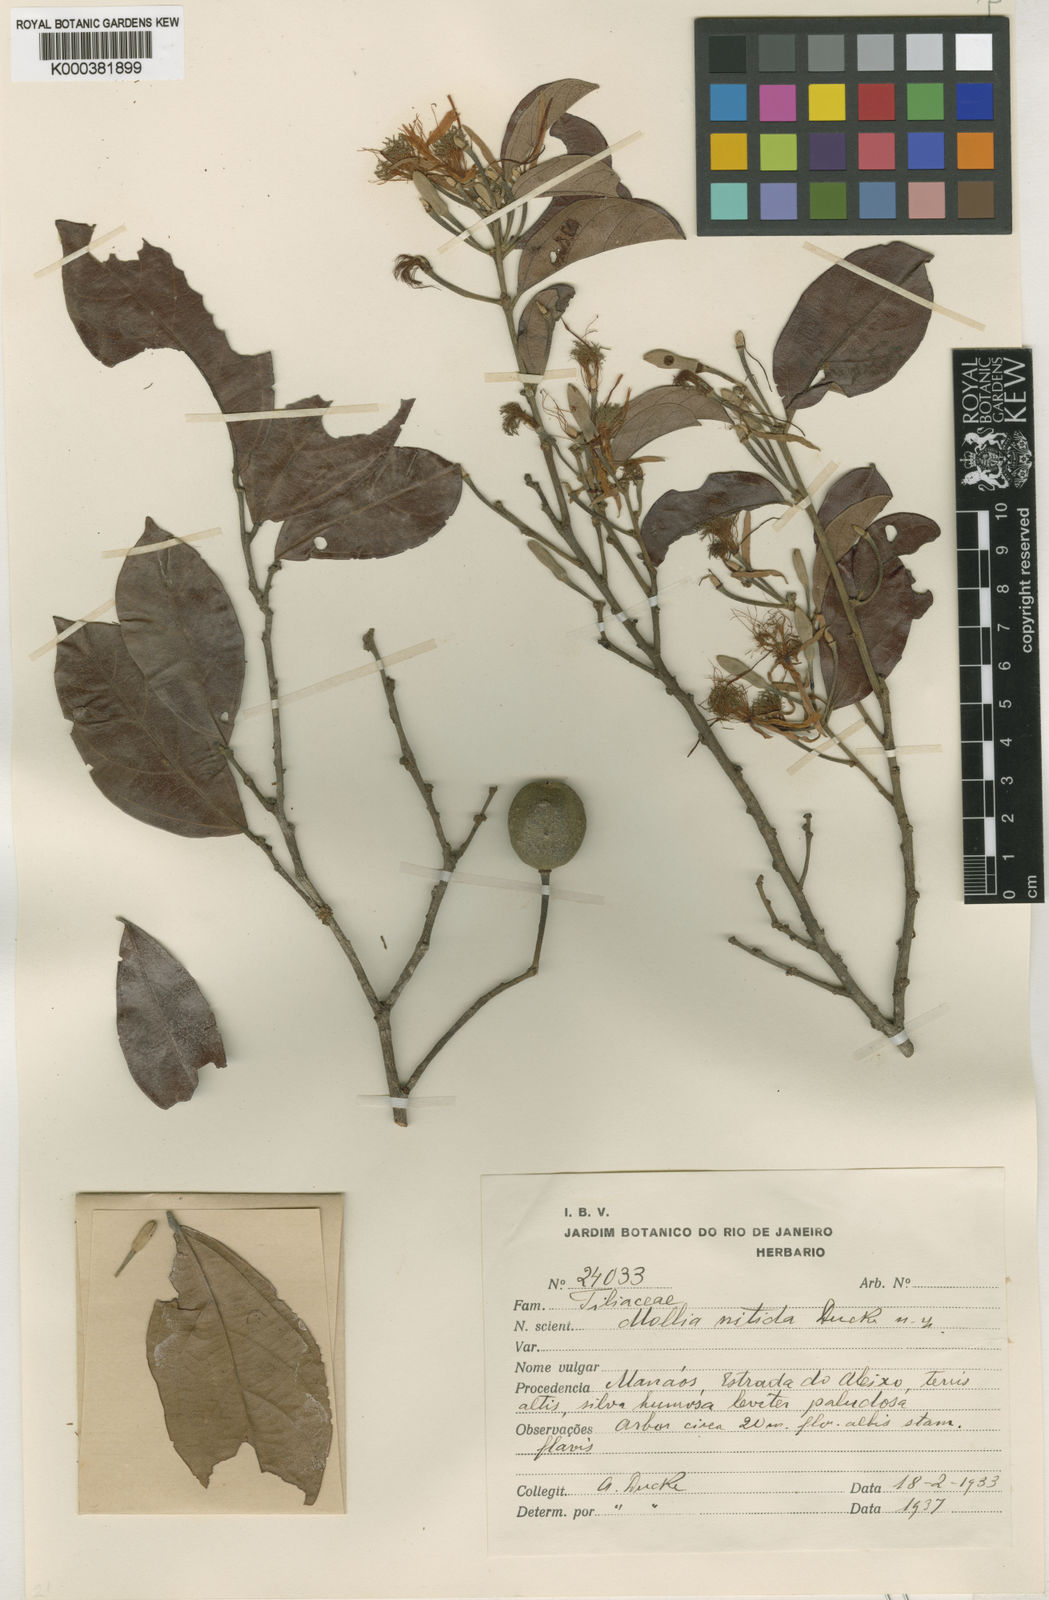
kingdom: Plantae
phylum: Tracheophyta
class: Magnoliopsida
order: Malvales
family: Malvaceae
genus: Mollia
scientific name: Mollia nitida
